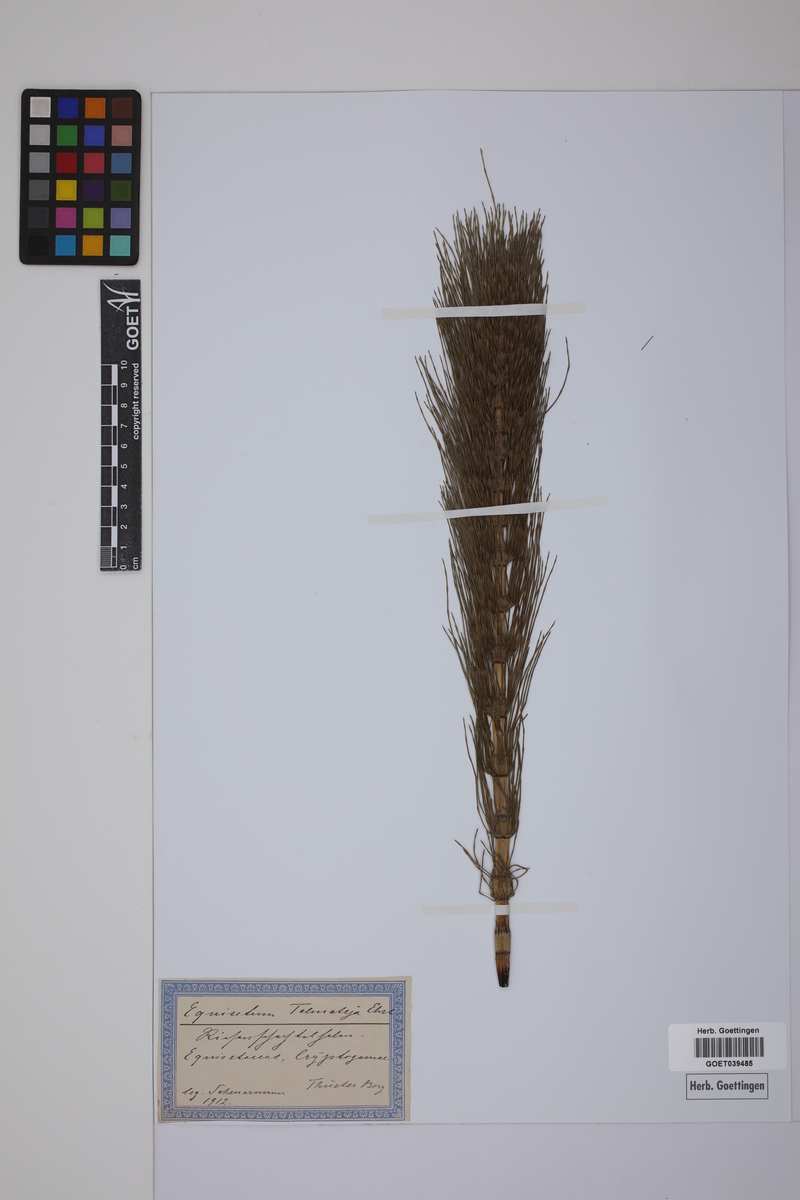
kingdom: Plantae
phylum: Tracheophyta
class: Polypodiopsida
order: Equisetales
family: Equisetaceae
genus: Equisetum
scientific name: Equisetum telmateia
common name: Great horsetail
